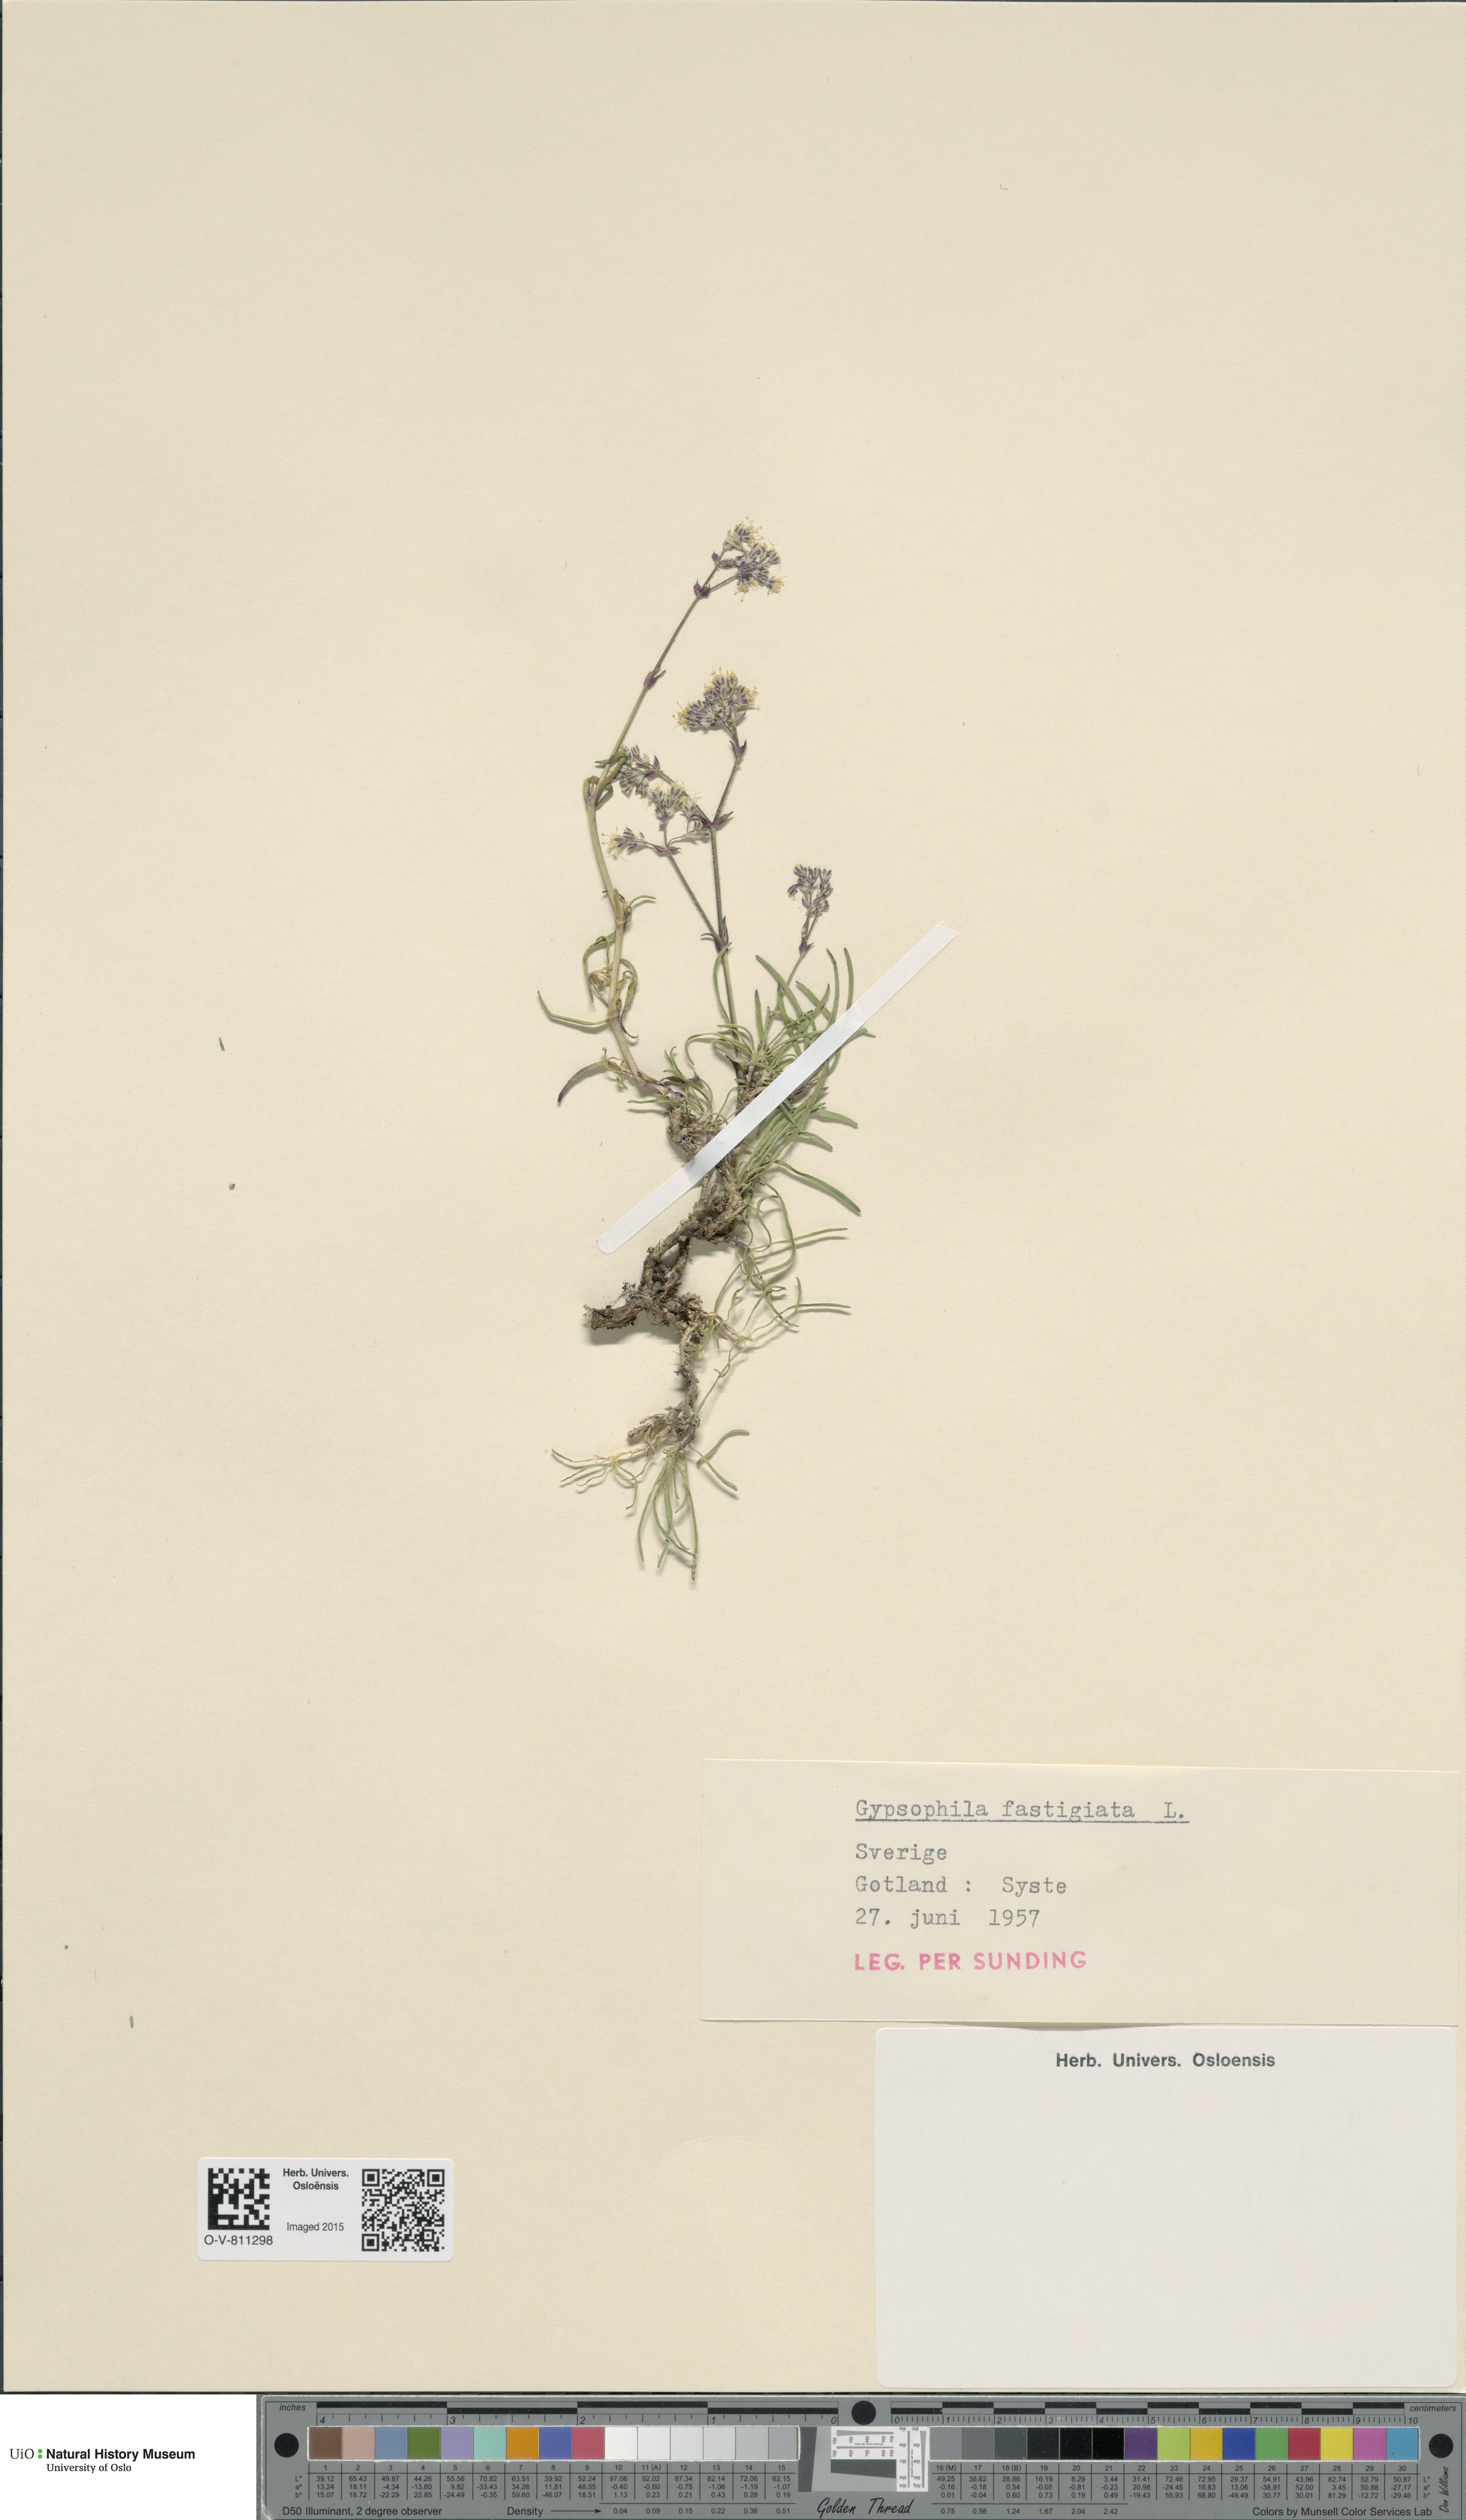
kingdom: Plantae
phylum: Tracheophyta
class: Magnoliopsida
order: Caryophyllales
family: Caryophyllaceae
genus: Gypsophila
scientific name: Gypsophila fastigiata
